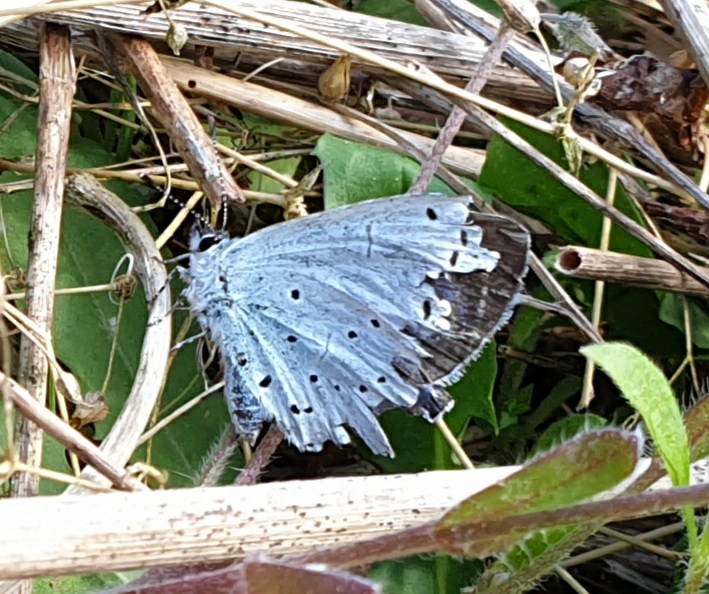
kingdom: Animalia
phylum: Arthropoda
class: Insecta
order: Lepidoptera
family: Lycaenidae
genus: Celastrina
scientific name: Celastrina argiolus
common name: Skovblåfugl
